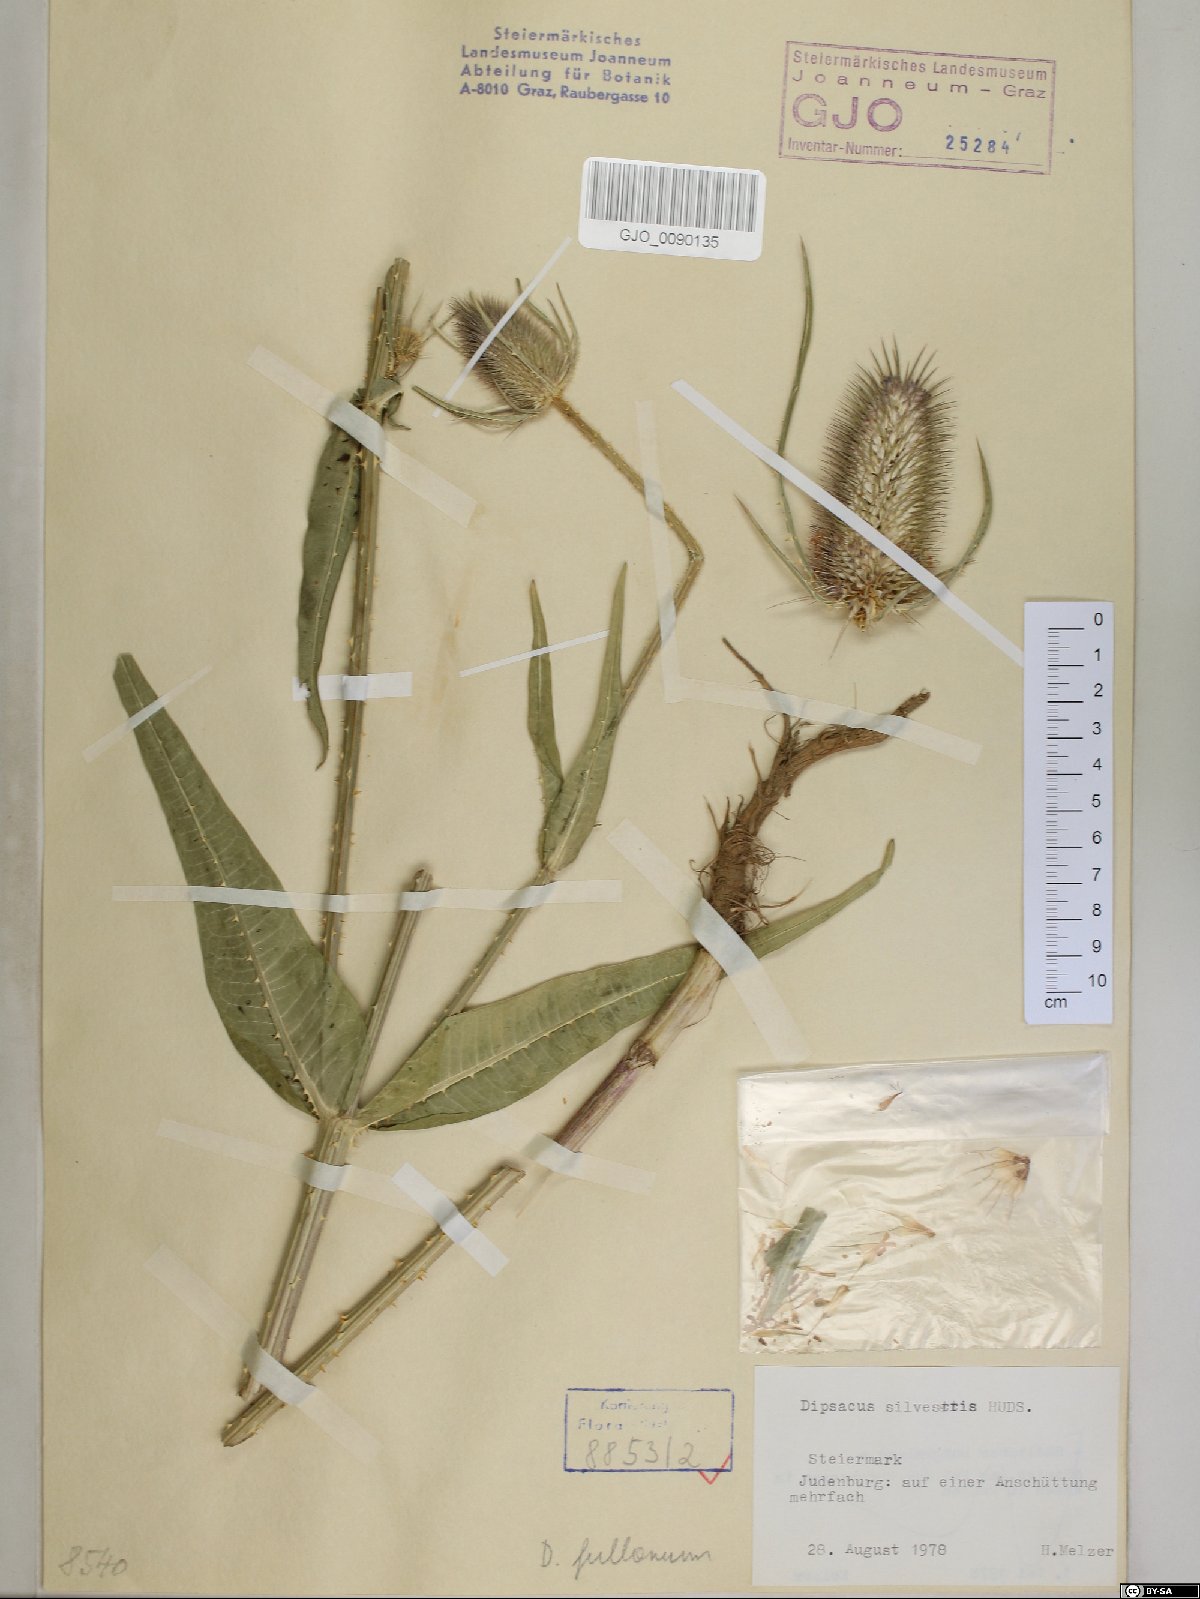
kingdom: Plantae
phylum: Tracheophyta
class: Magnoliopsida
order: Dipsacales
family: Caprifoliaceae
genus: Dipsacus
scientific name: Dipsacus fullonum
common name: Teasel
